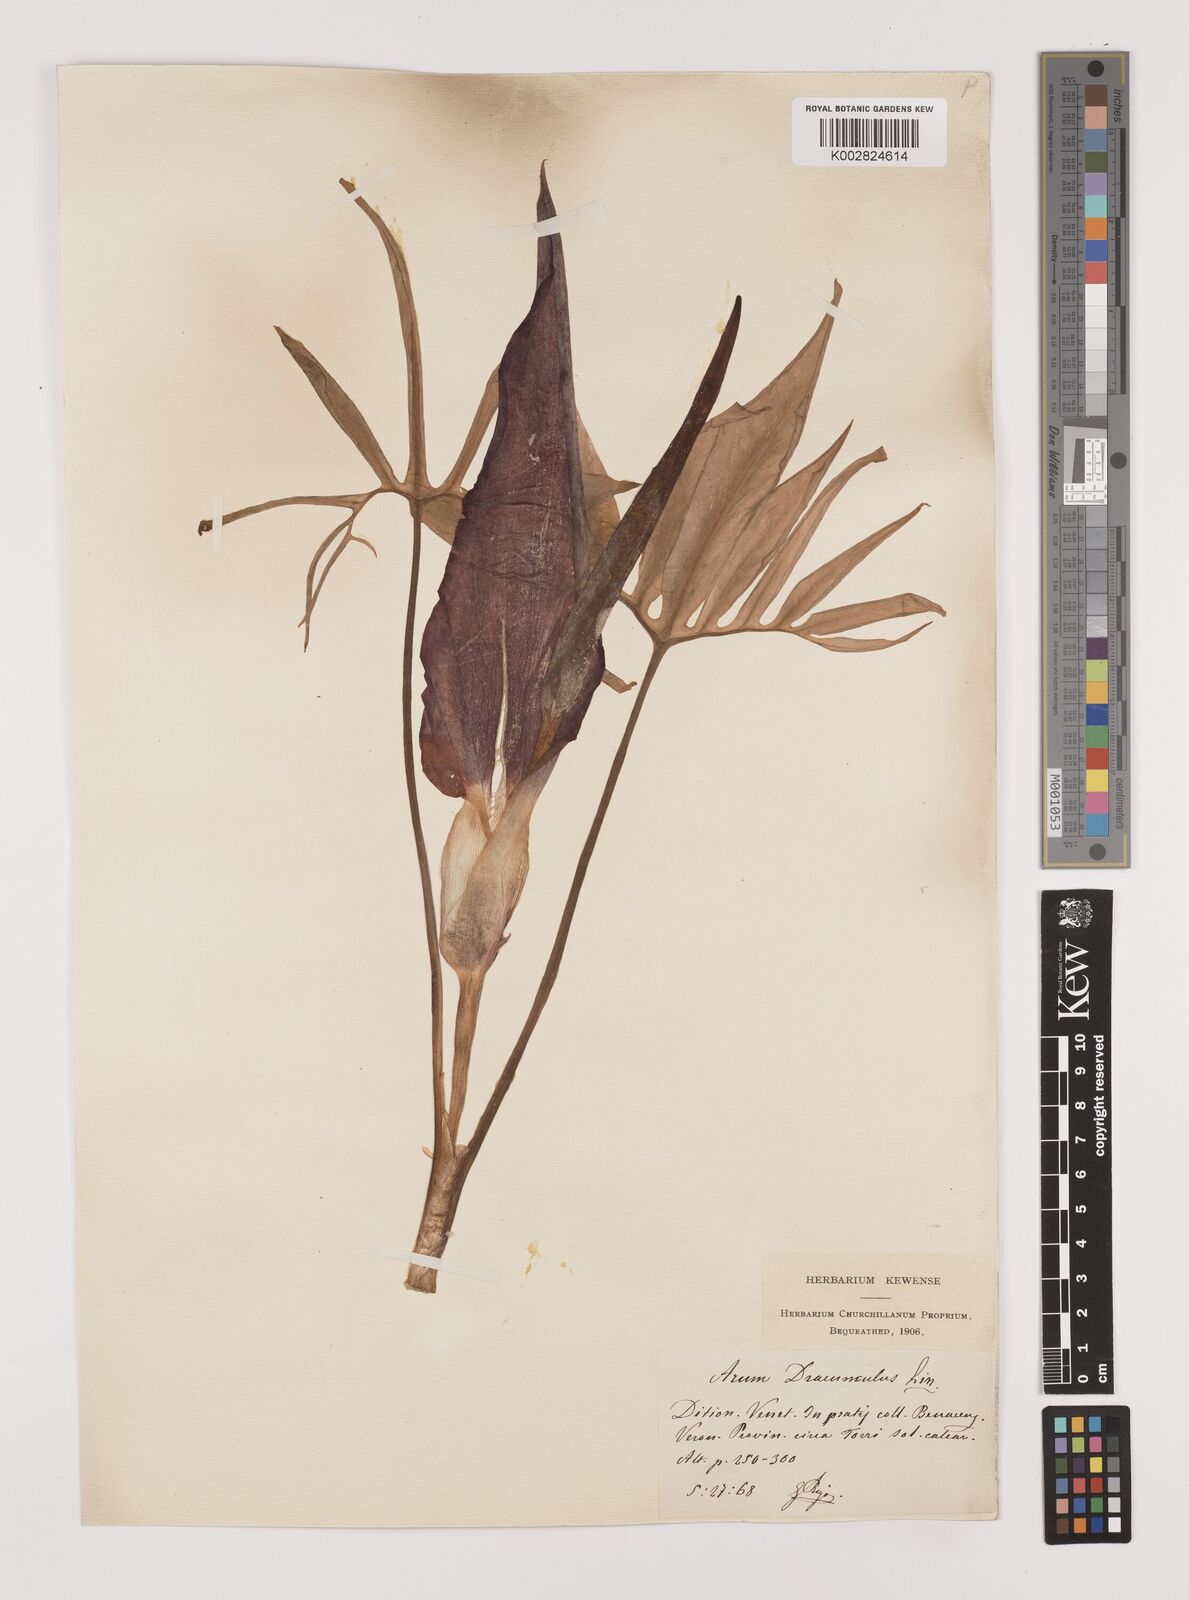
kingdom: Plantae
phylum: Tracheophyta
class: Liliopsida
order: Alismatales
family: Araceae
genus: Dracunculus
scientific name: Dracunculus vulgaris
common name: Dragon arum
